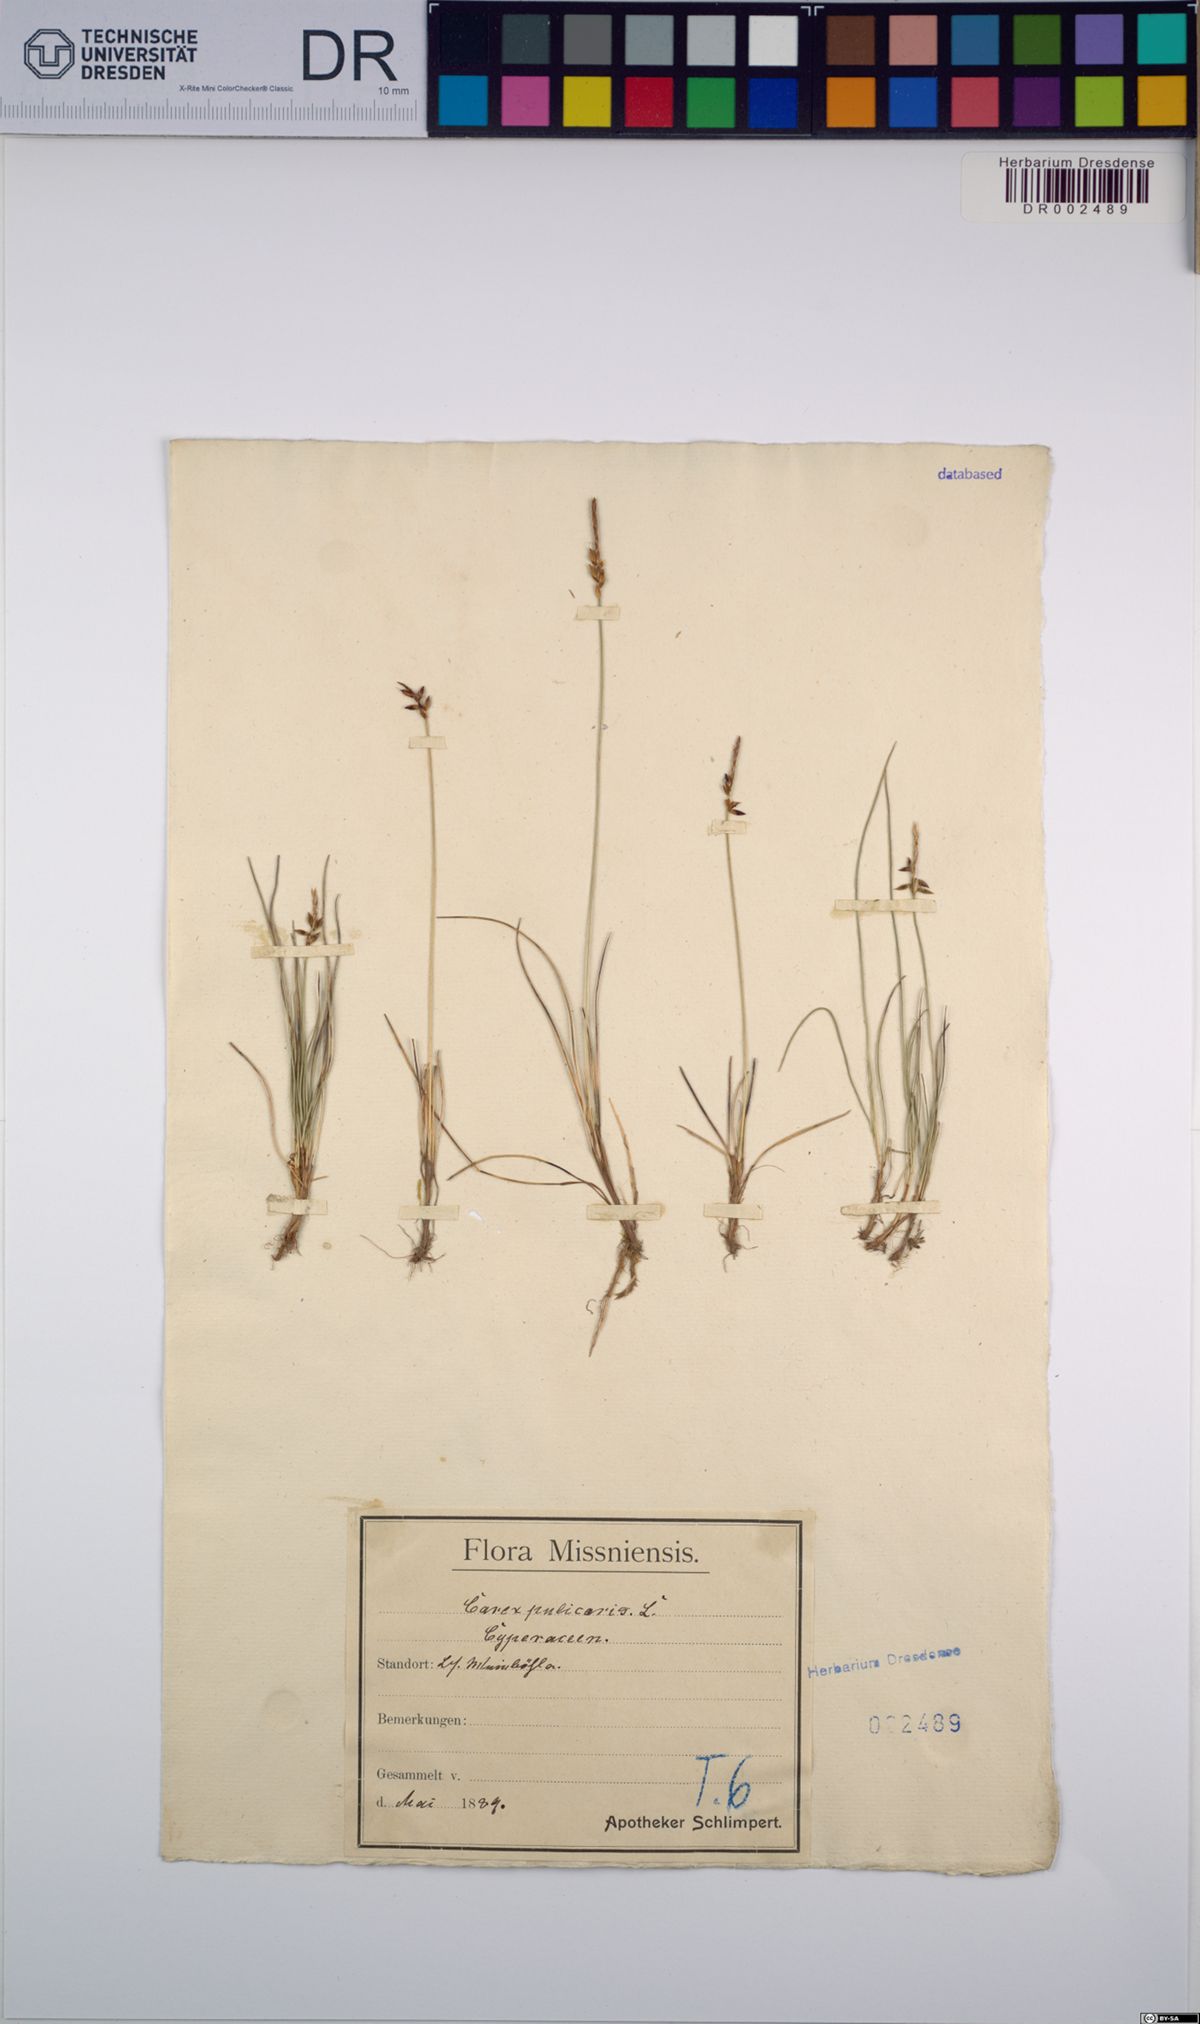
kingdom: Plantae
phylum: Tracheophyta
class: Liliopsida
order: Poales
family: Cyperaceae
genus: Carex
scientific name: Carex pulicaris
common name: Flea sedge
